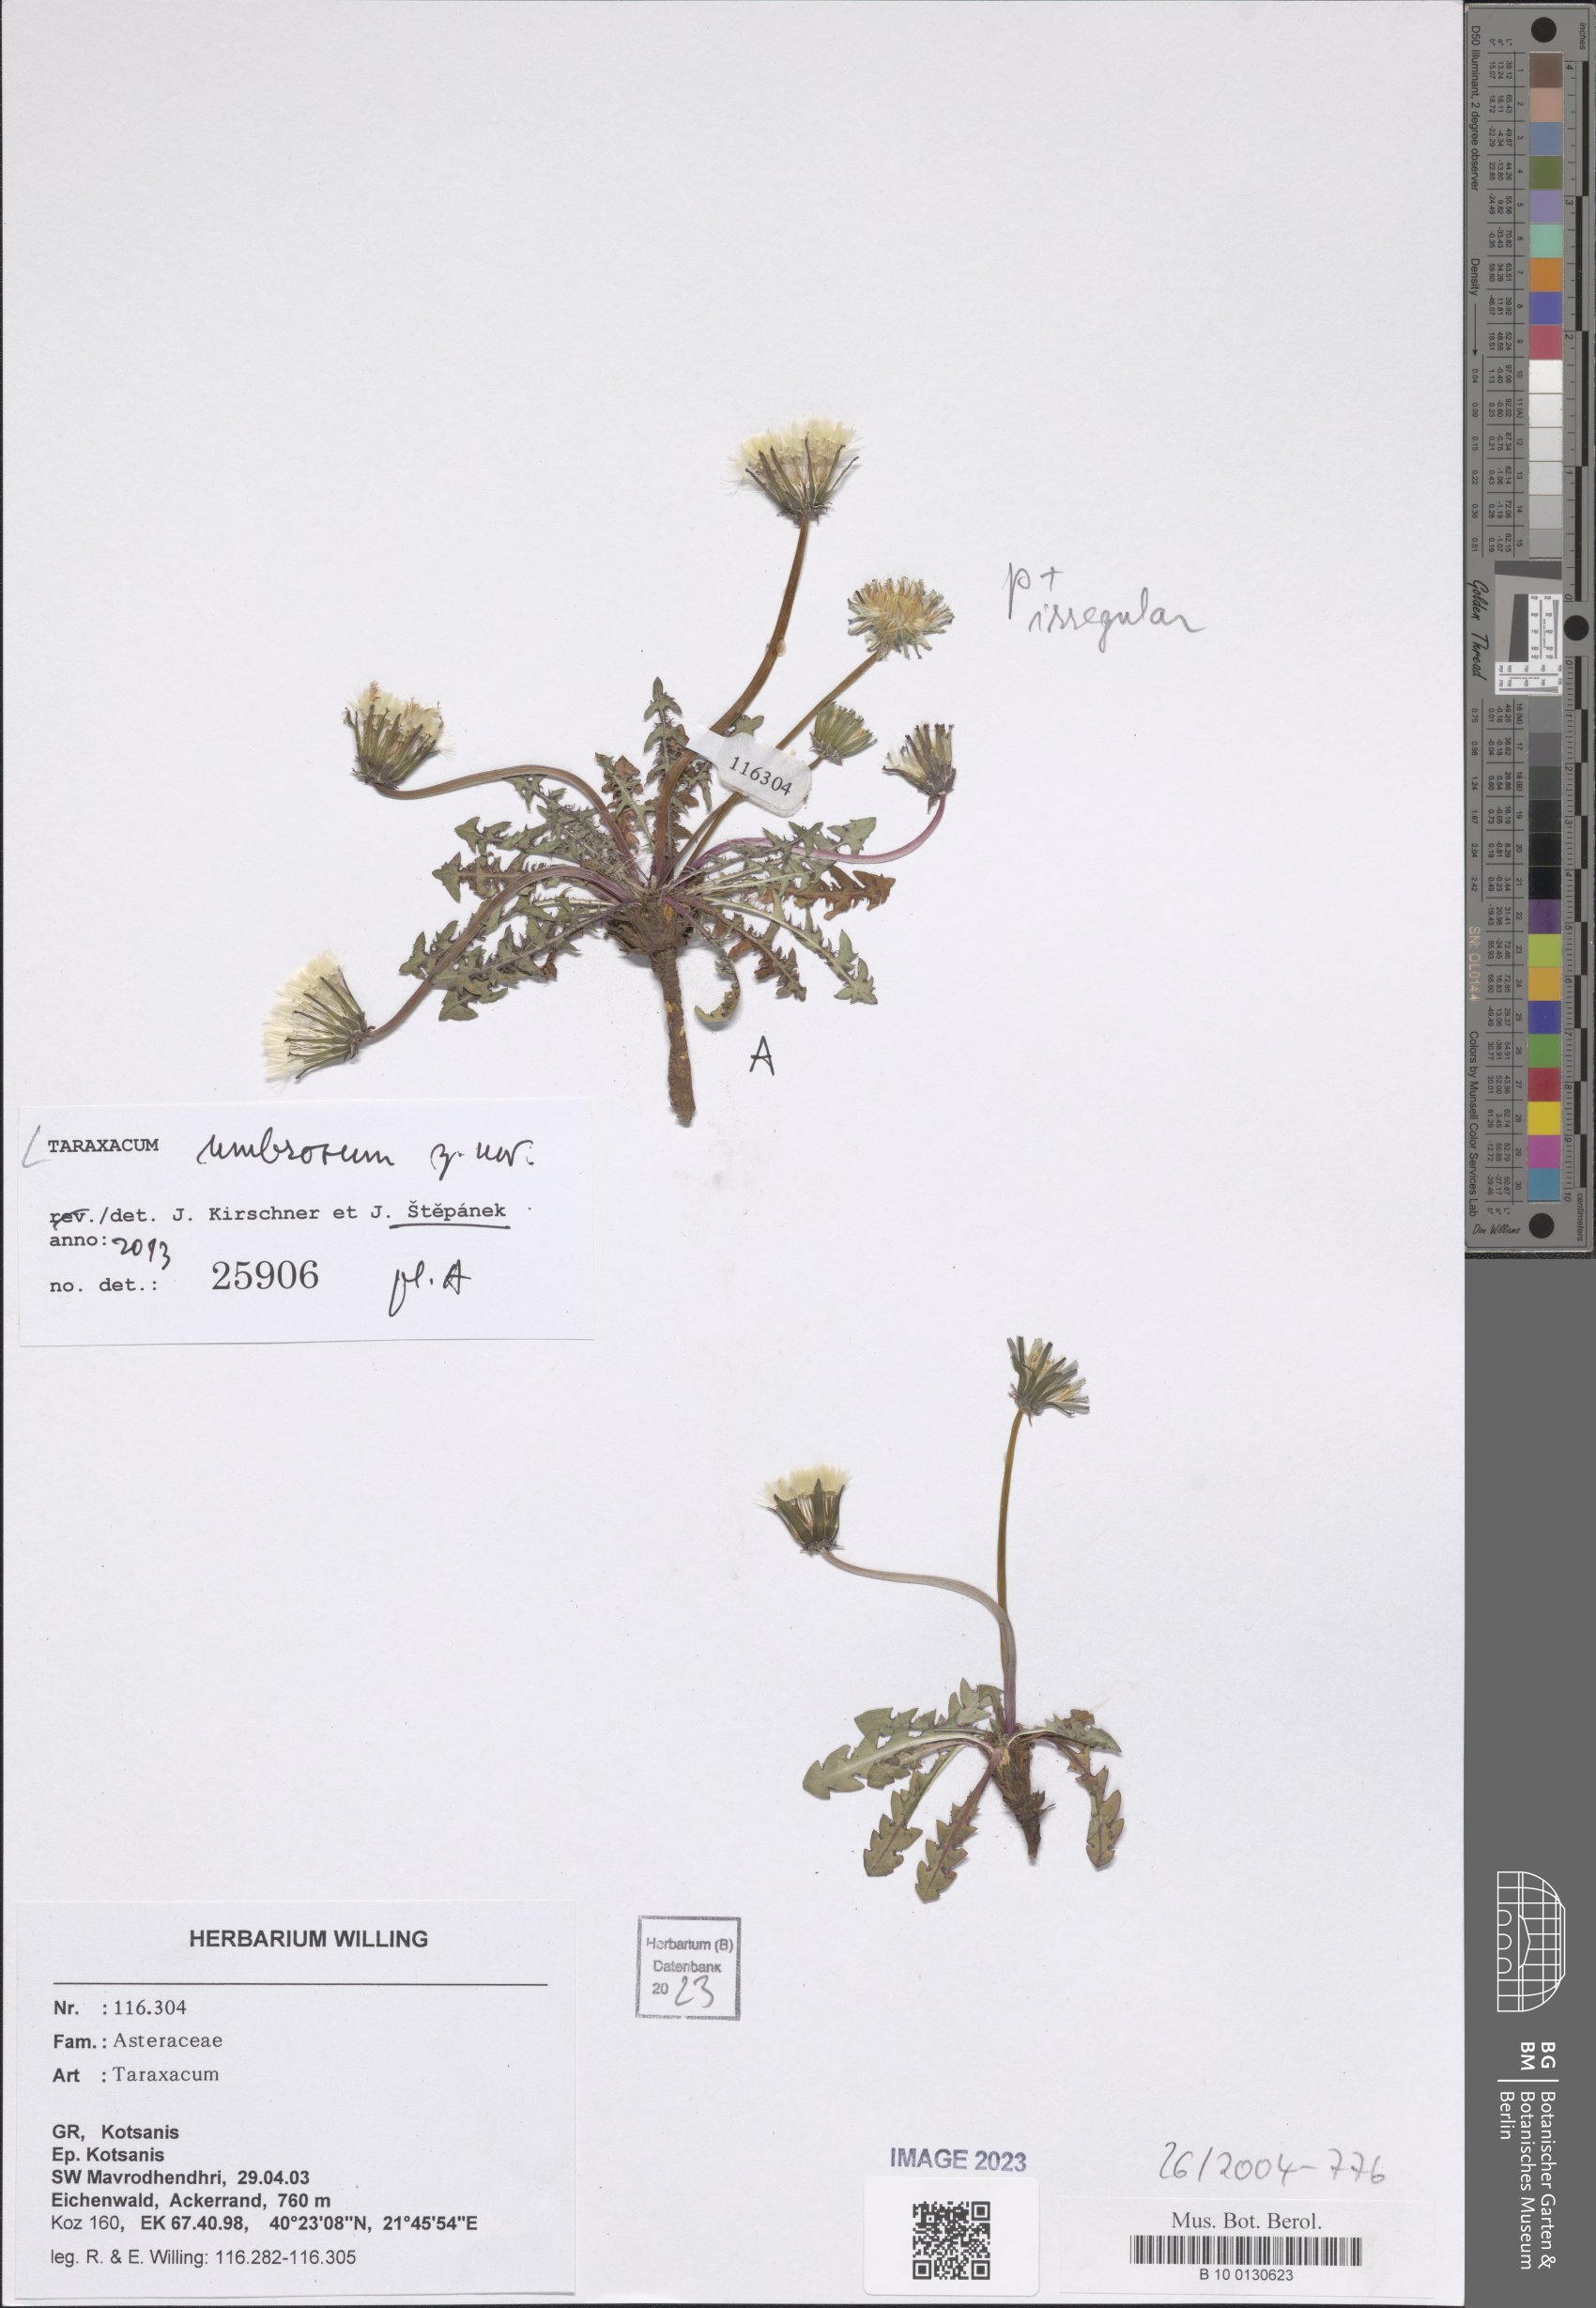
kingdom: Plantae
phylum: Tracheophyta
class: Magnoliopsida
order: Asterales
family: Asteraceae
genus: Taraxacum
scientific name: Taraxacum
